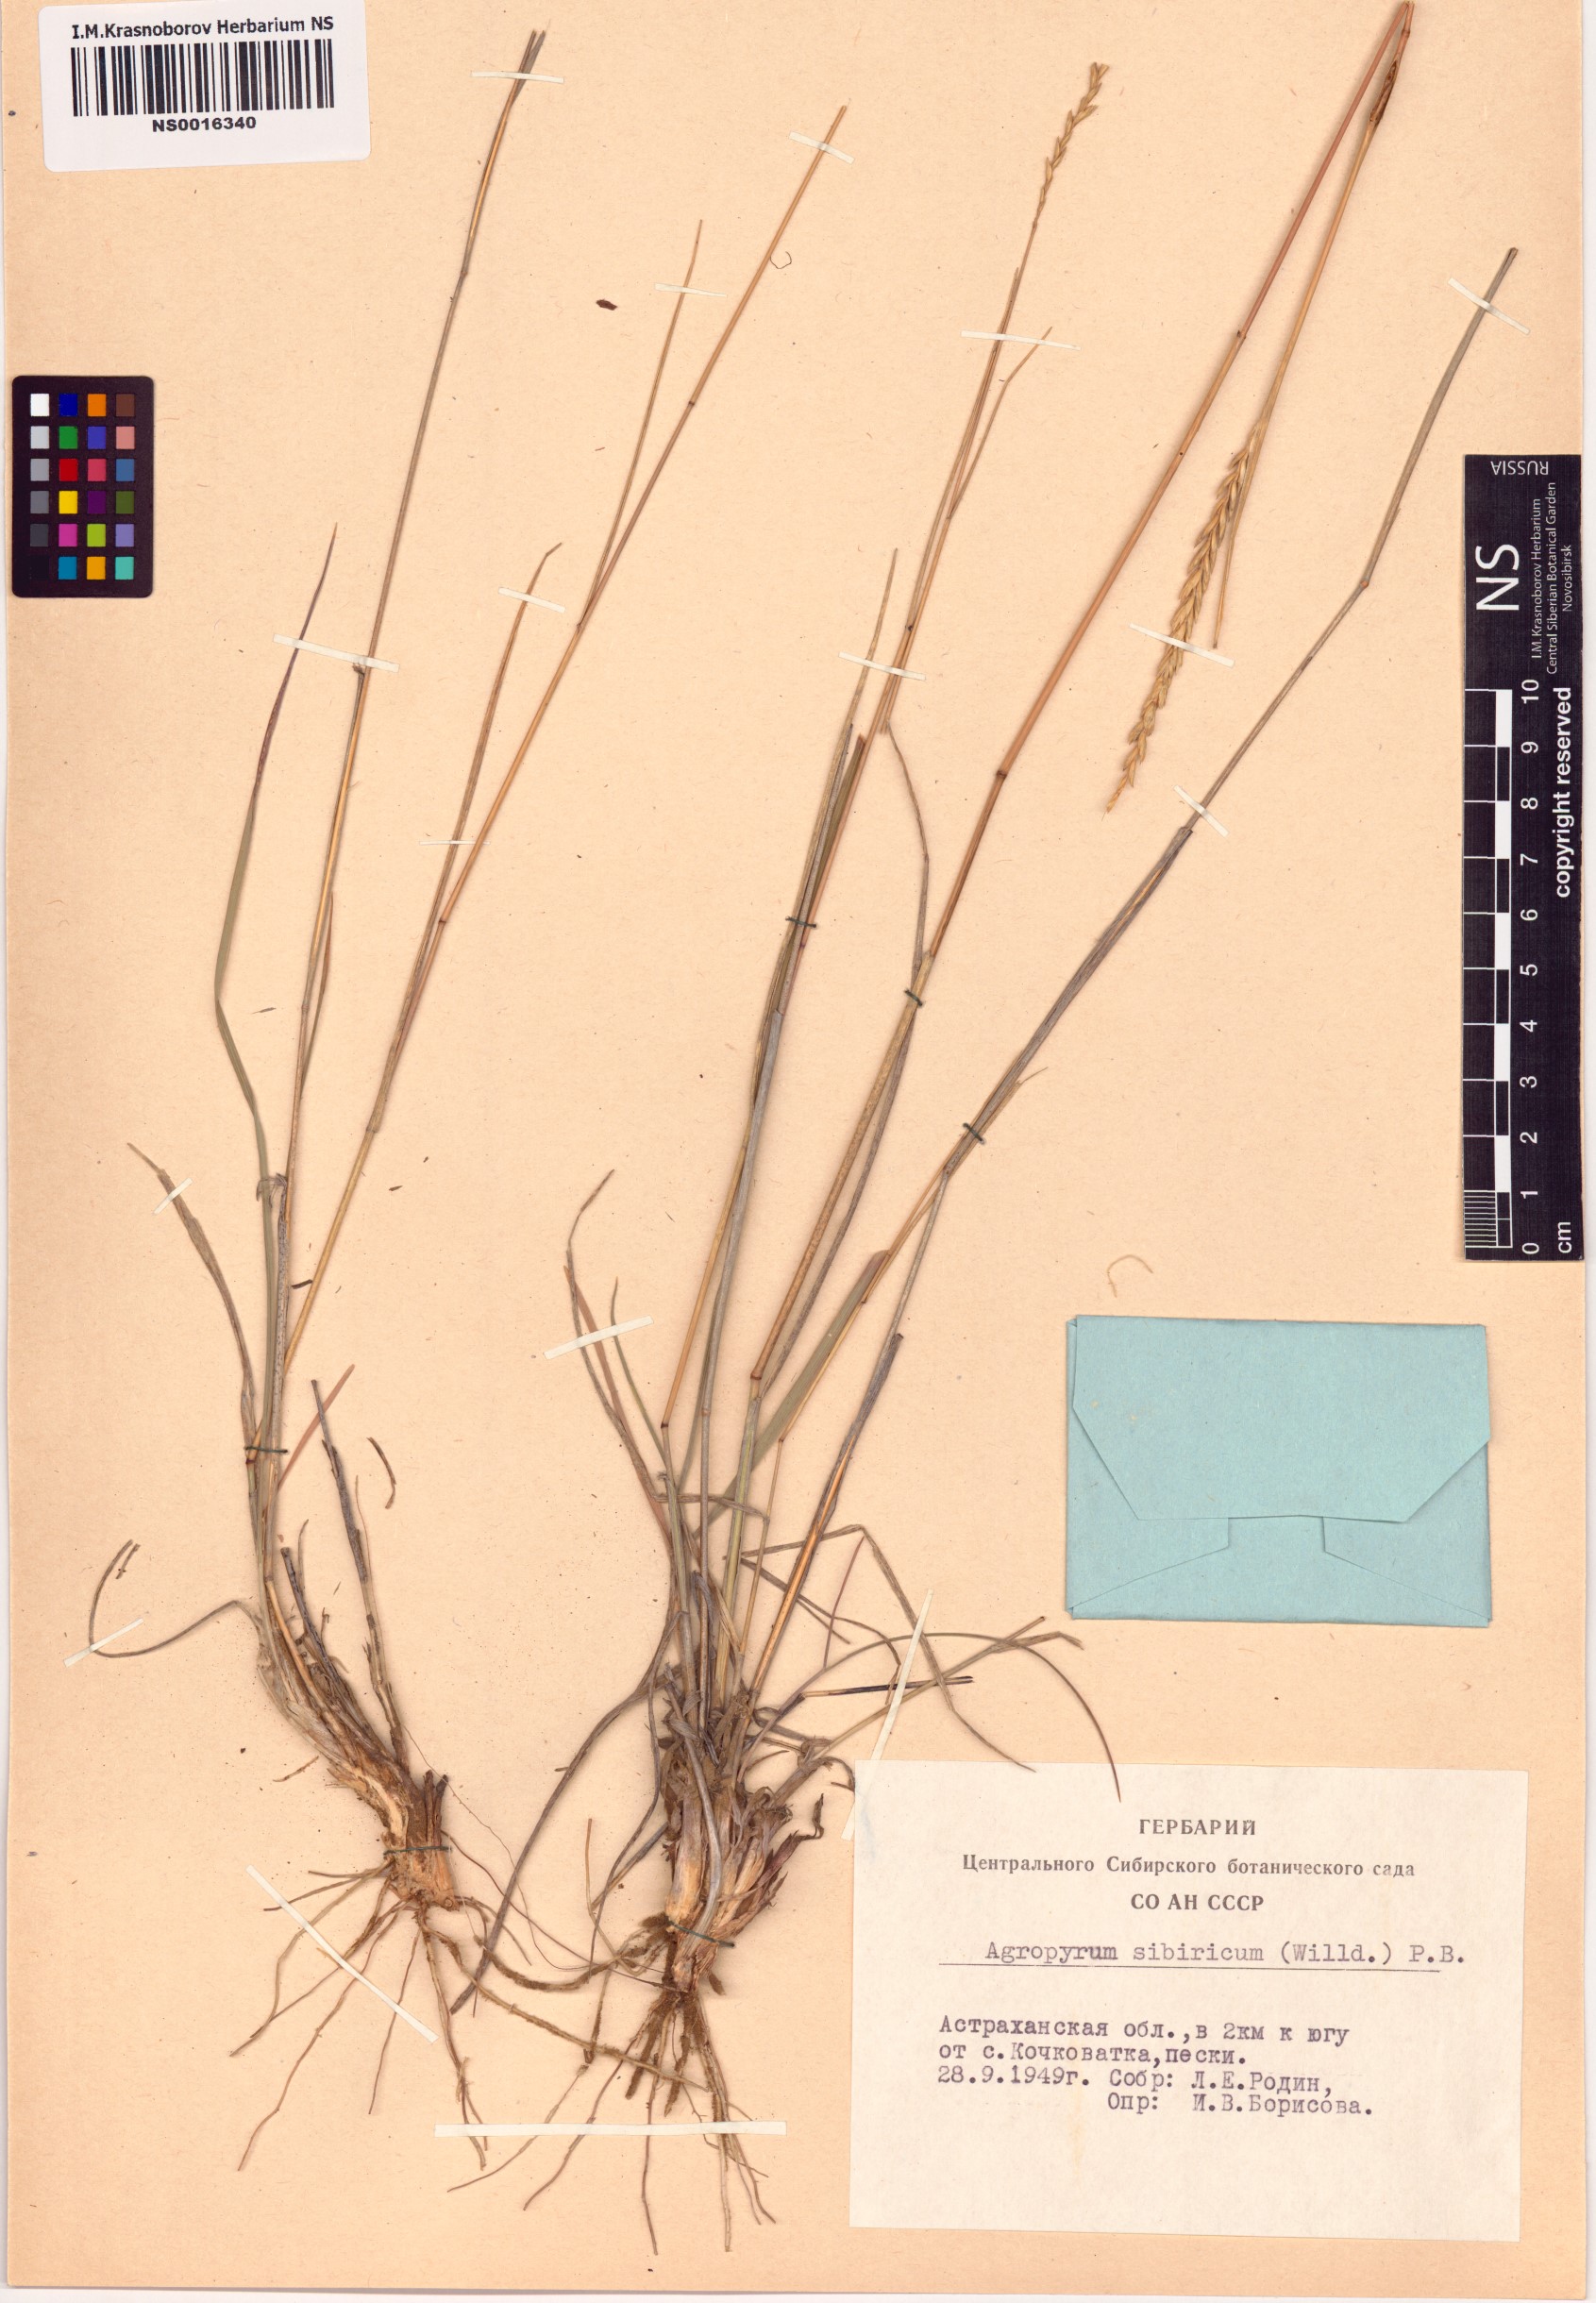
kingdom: Plantae
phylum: Tracheophyta
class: Liliopsida
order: Poales
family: Poaceae
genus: Agropyron
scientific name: Agropyron fragile
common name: Siberian wheatgrass
